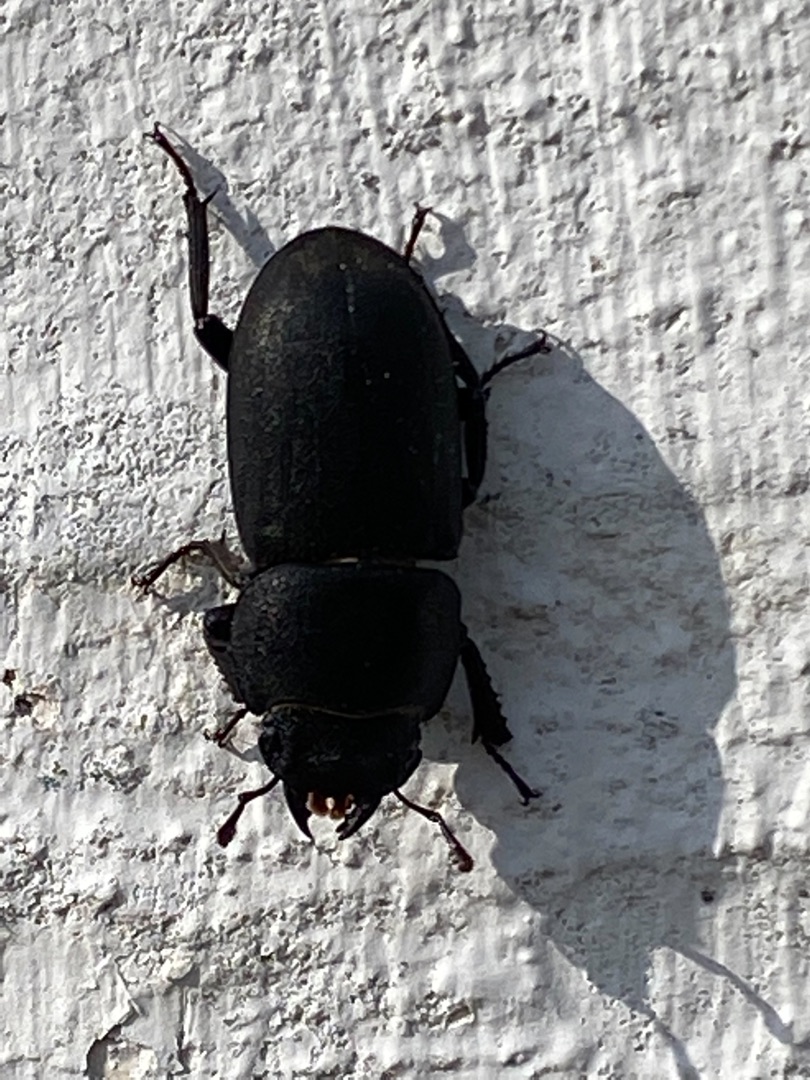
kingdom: Animalia
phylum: Arthropoda
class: Insecta
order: Coleoptera
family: Lucanidae
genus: Dorcus
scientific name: Dorcus parallelipipedus
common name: Bøghjort
